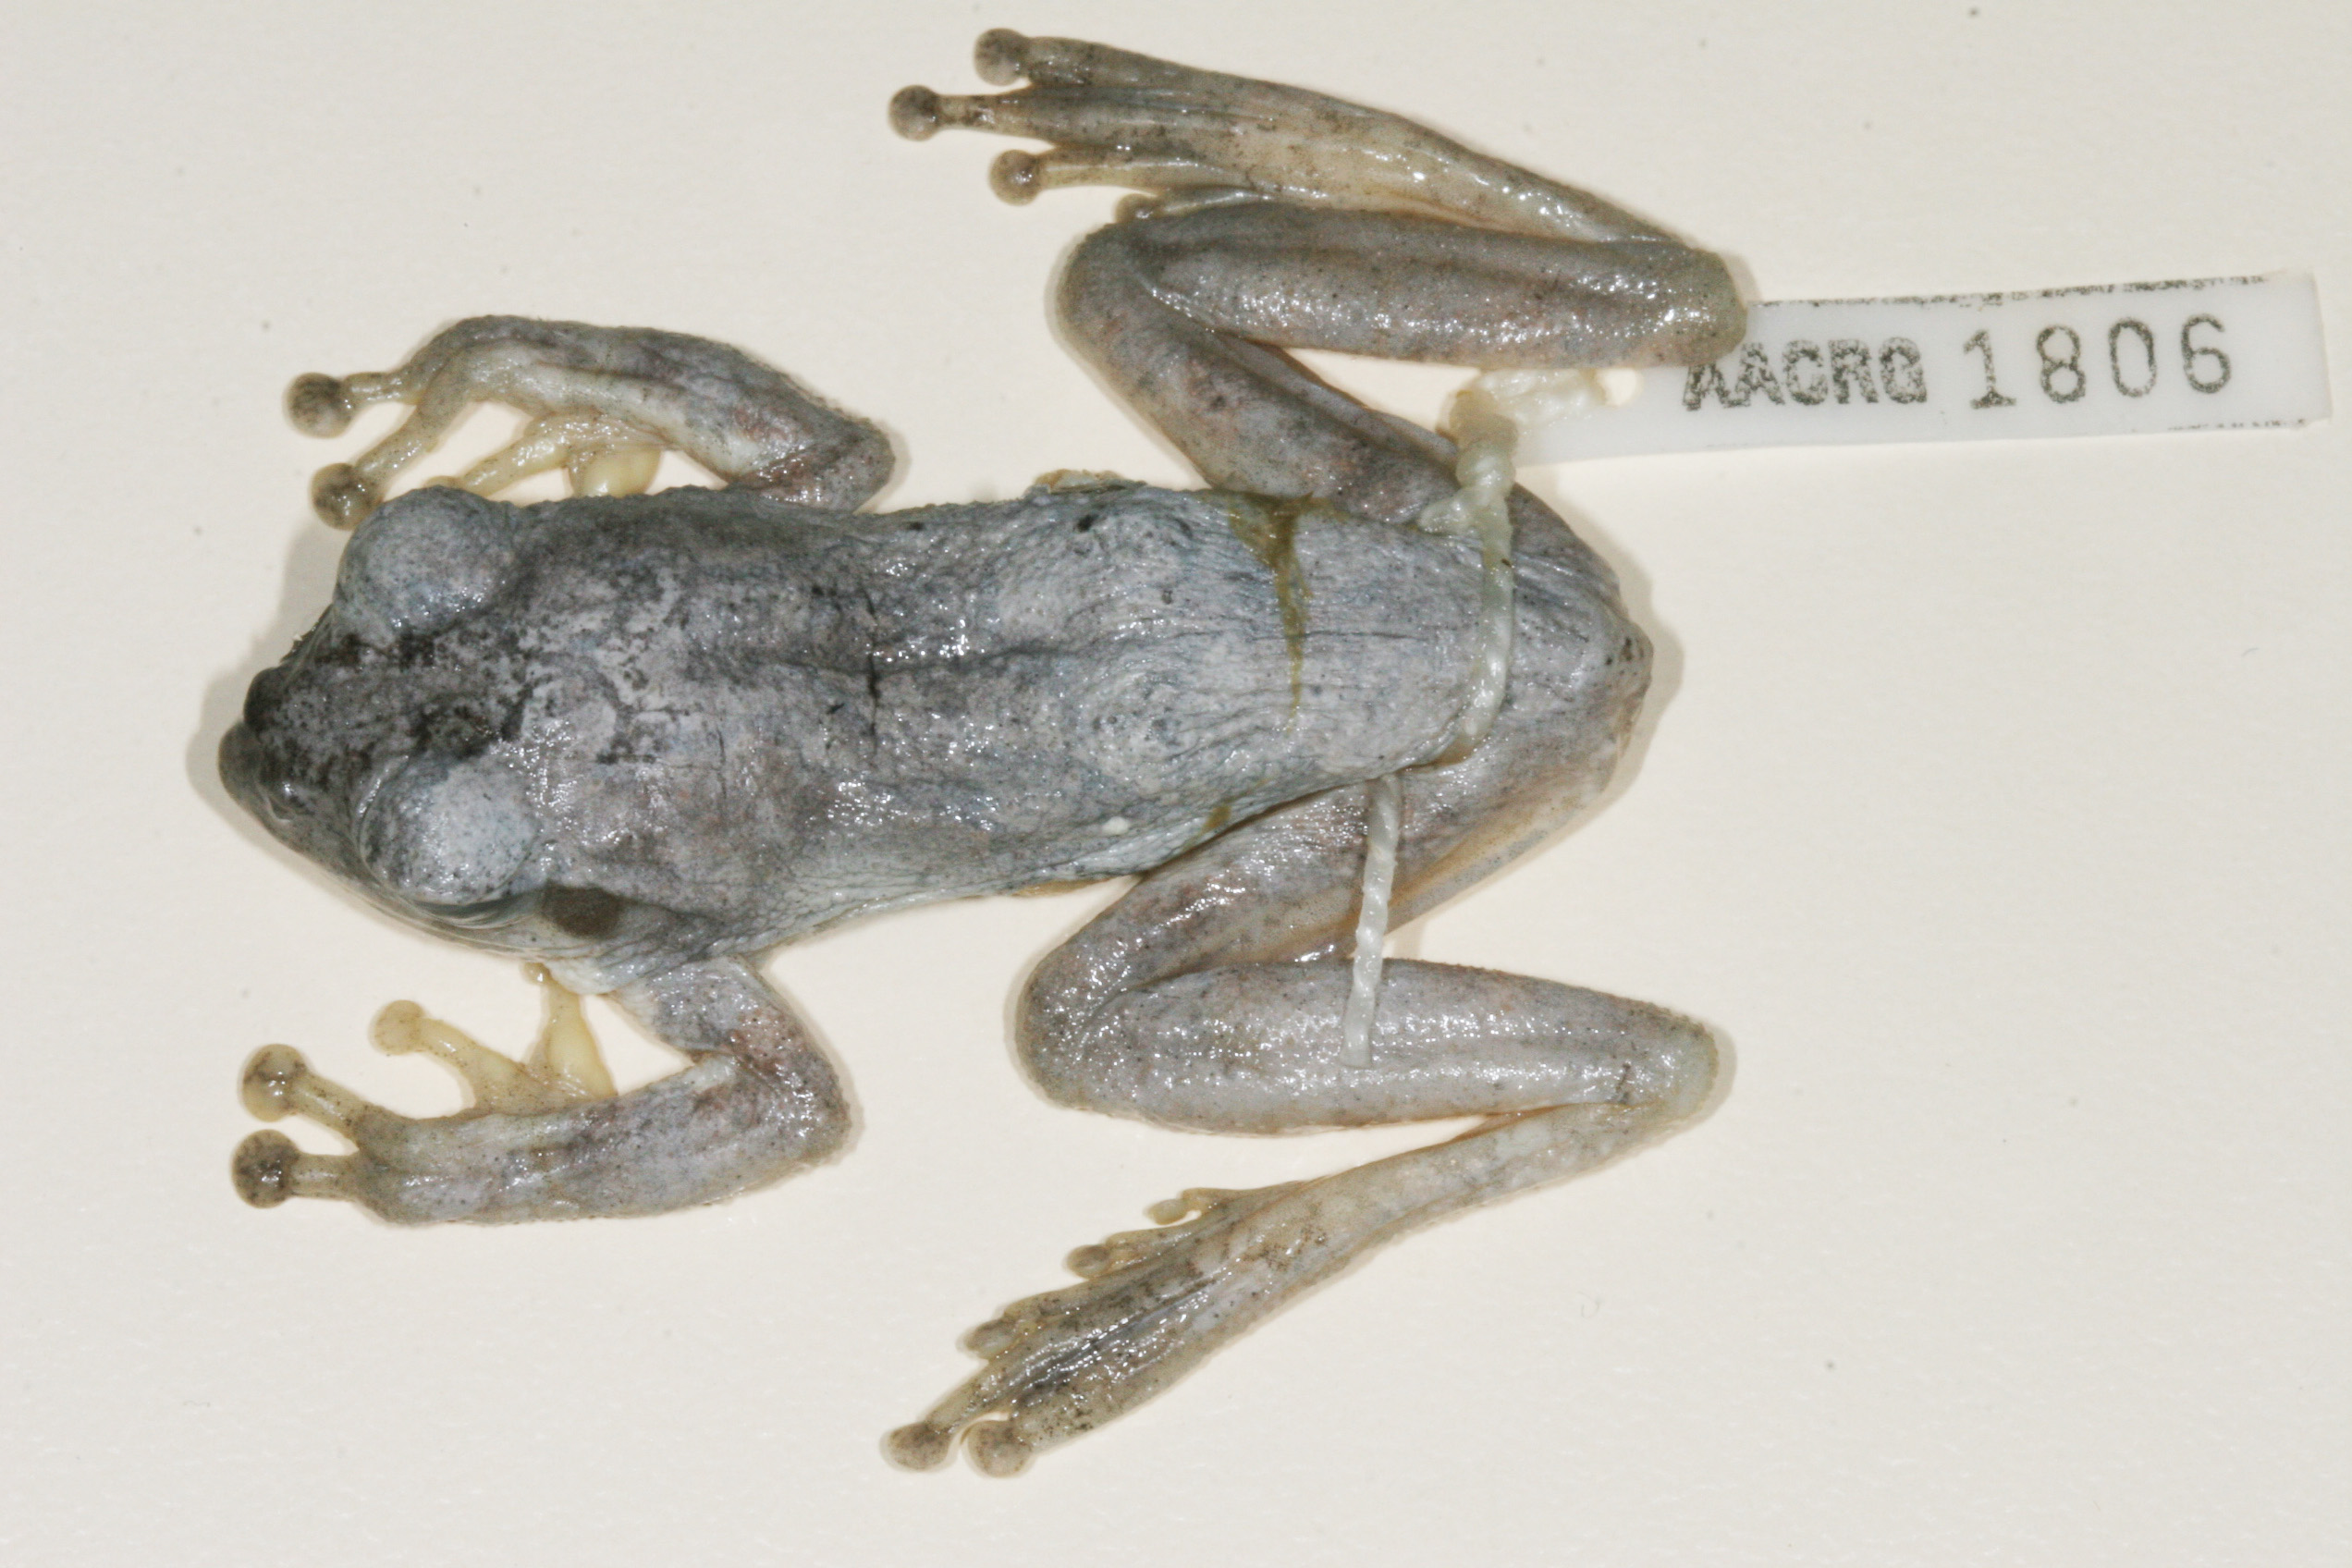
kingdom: Animalia
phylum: Chordata
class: Amphibia
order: Anura
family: Rhacophoridae
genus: Chiromantis
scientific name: Chiromantis xerampelina
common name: African gray treefrog
